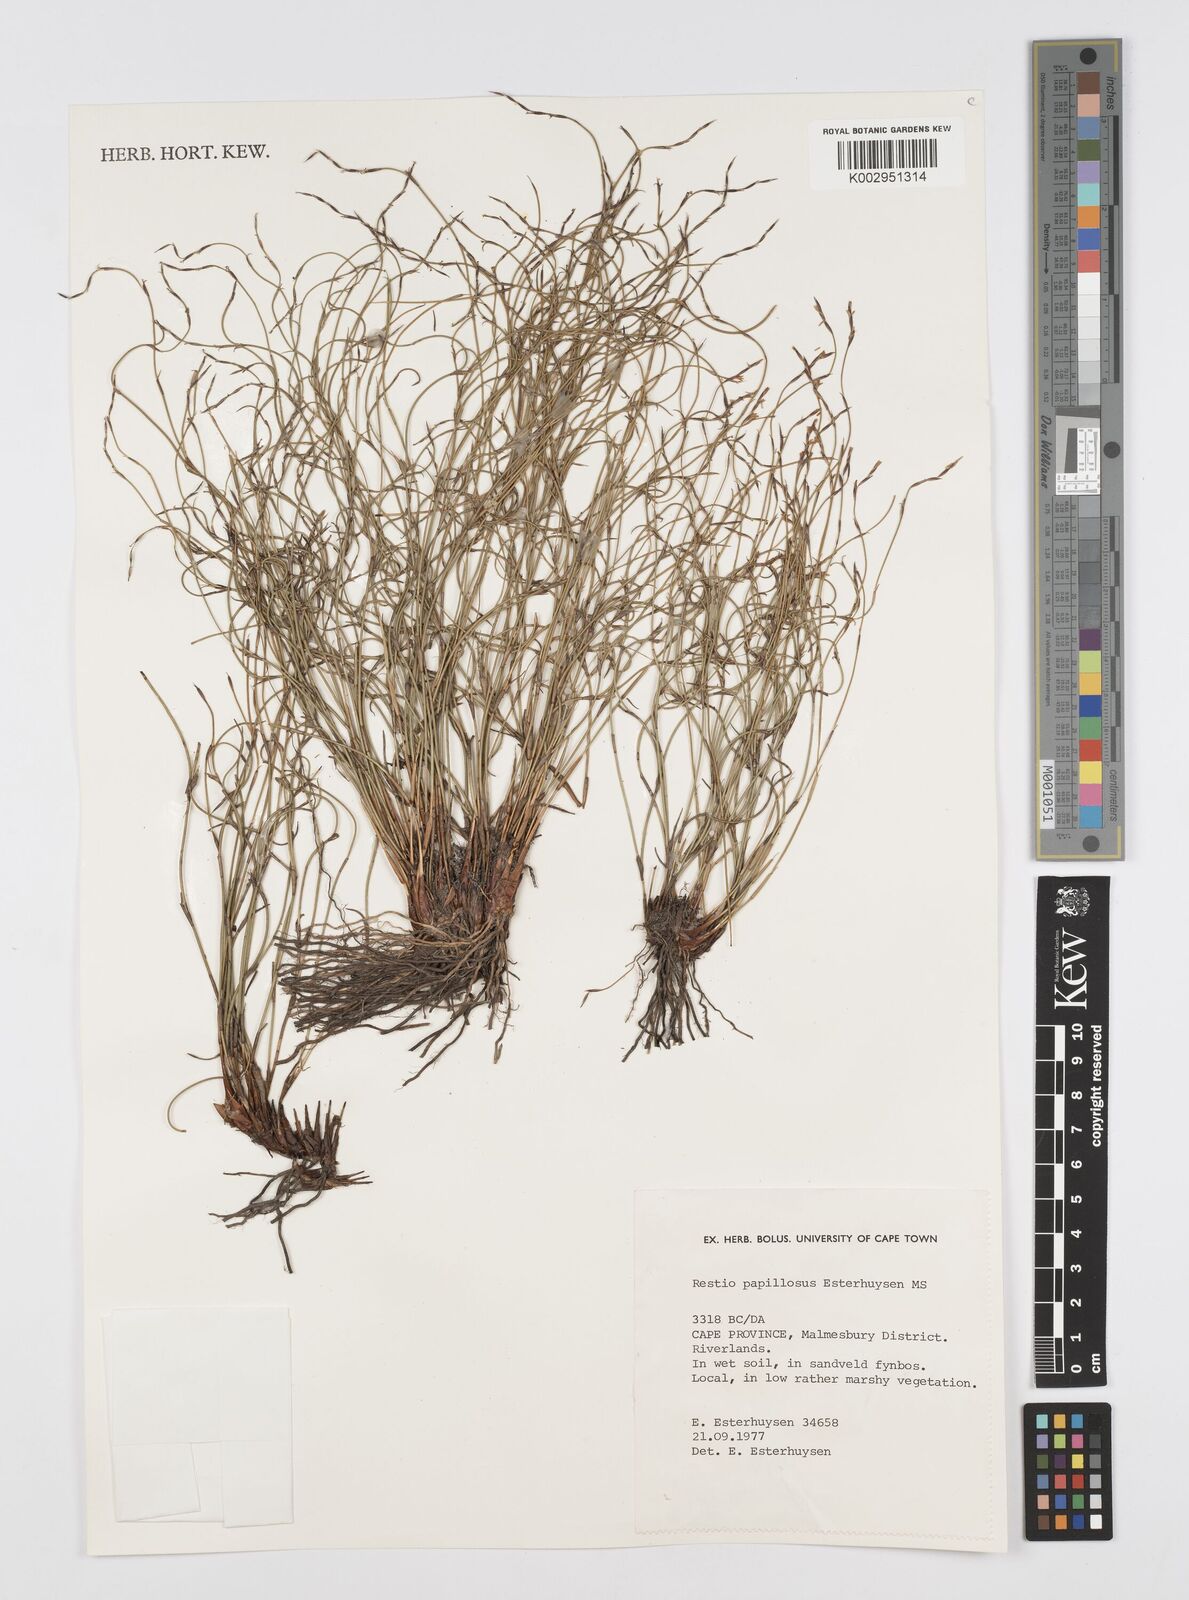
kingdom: Plantae
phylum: Tracheophyta
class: Liliopsida
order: Poales
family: Restionaceae
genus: Restio
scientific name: Restio papillosus
